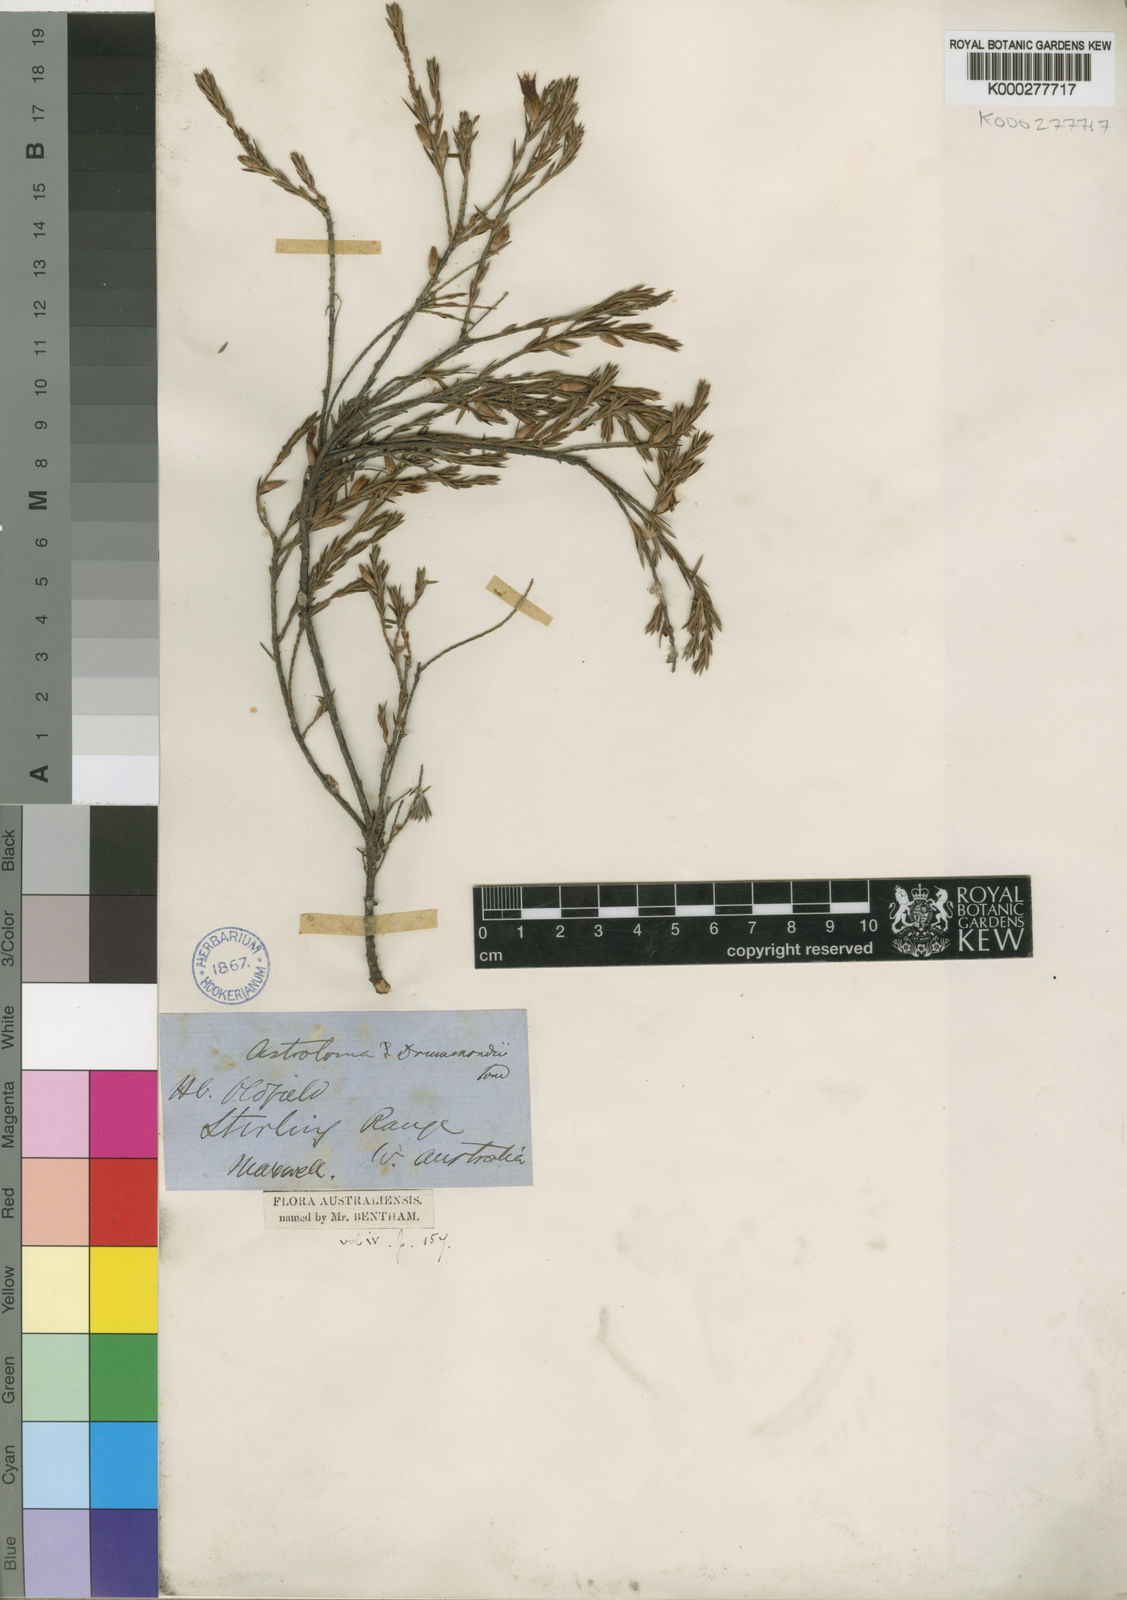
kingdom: Plantae
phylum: Tracheophyta
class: Magnoliopsida
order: Ericales
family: Ericaceae
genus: Styphelia
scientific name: Styphelia epacridis
